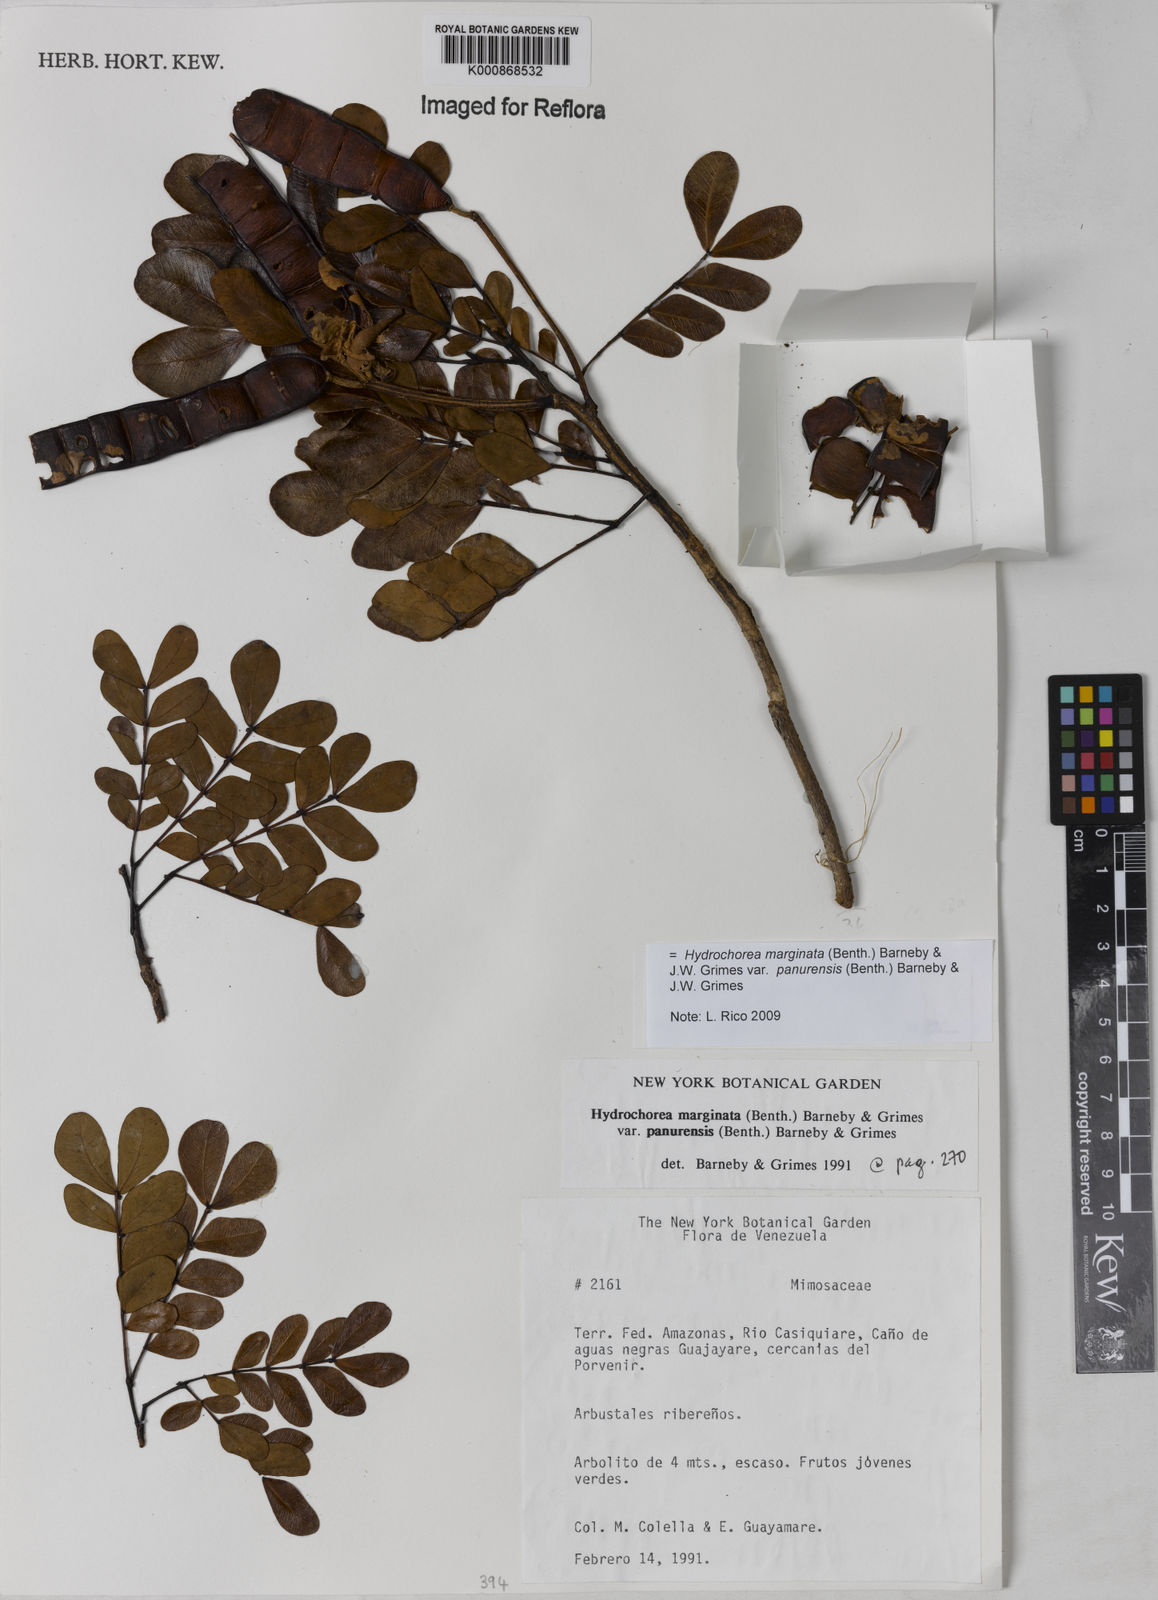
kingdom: Plantae
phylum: Tracheophyta
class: Magnoliopsida
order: Fabales
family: Fabaceae
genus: Hydrochorea
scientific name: Hydrochorea marginata
